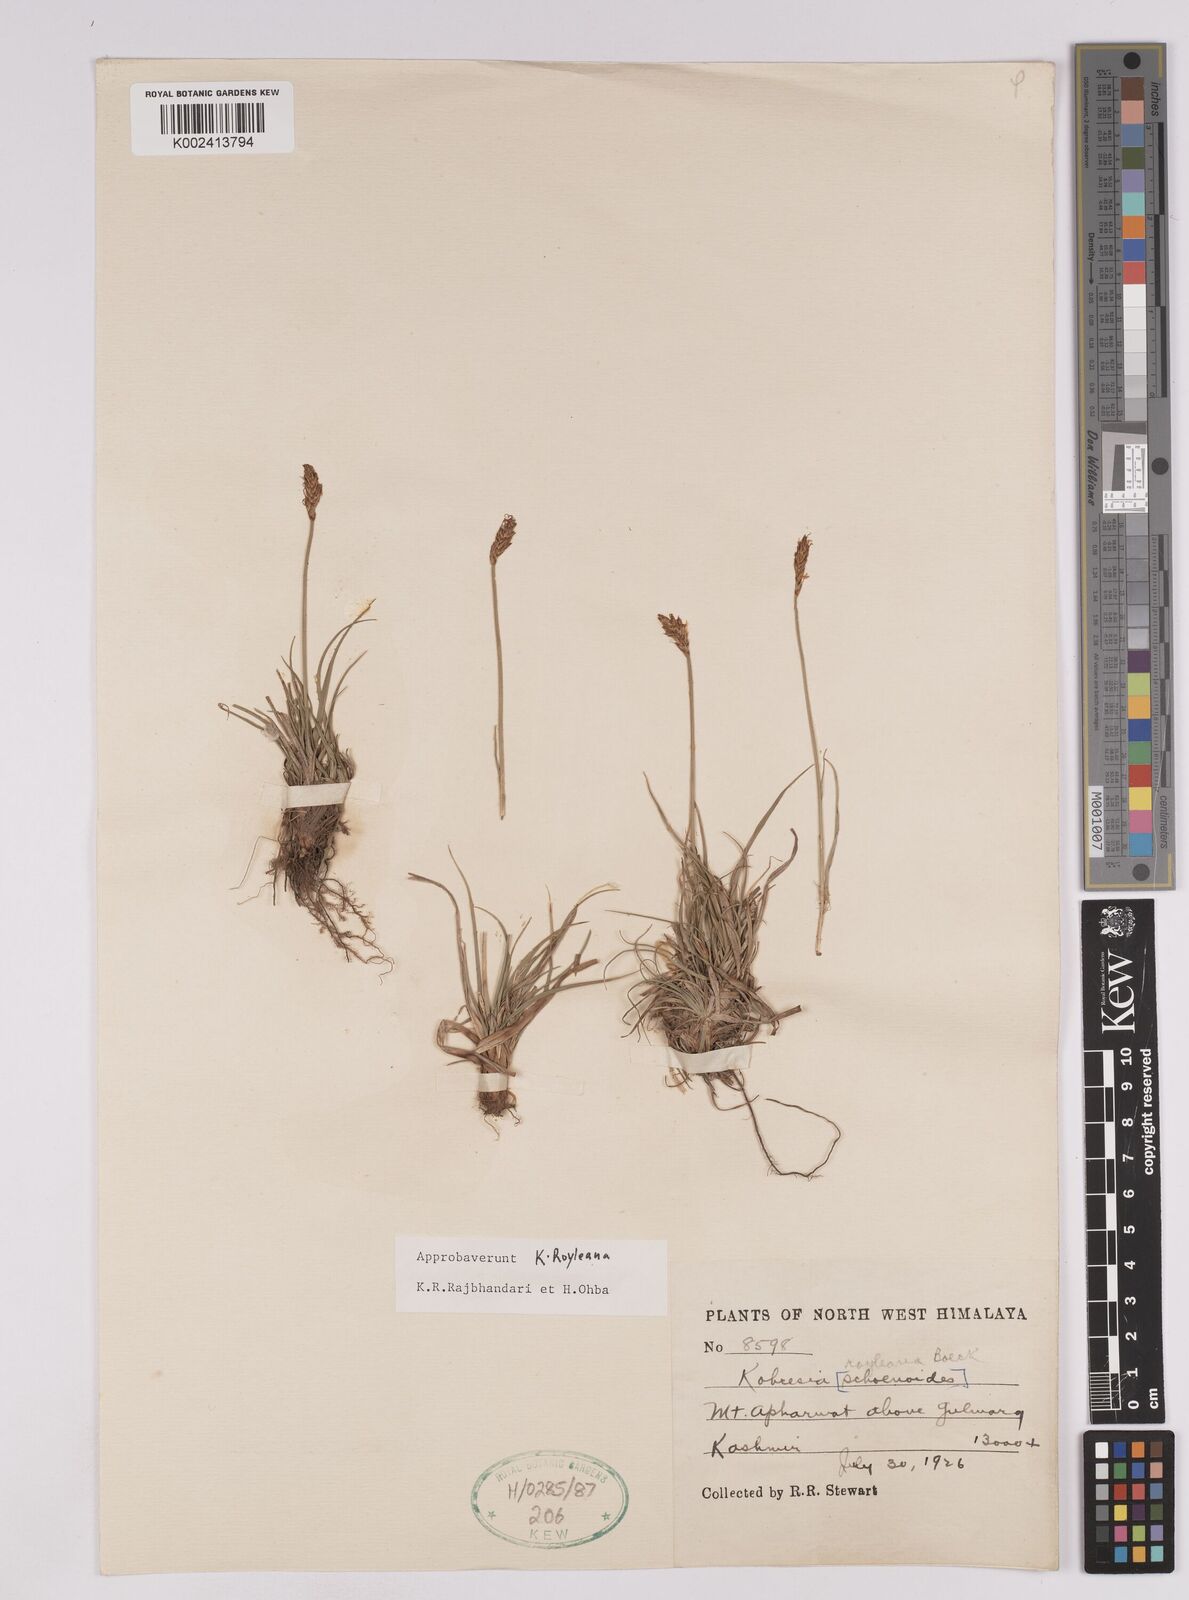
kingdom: Plantae
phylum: Tracheophyta
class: Liliopsida
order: Poales
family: Cyperaceae
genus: Carex
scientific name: Carex kokanica
